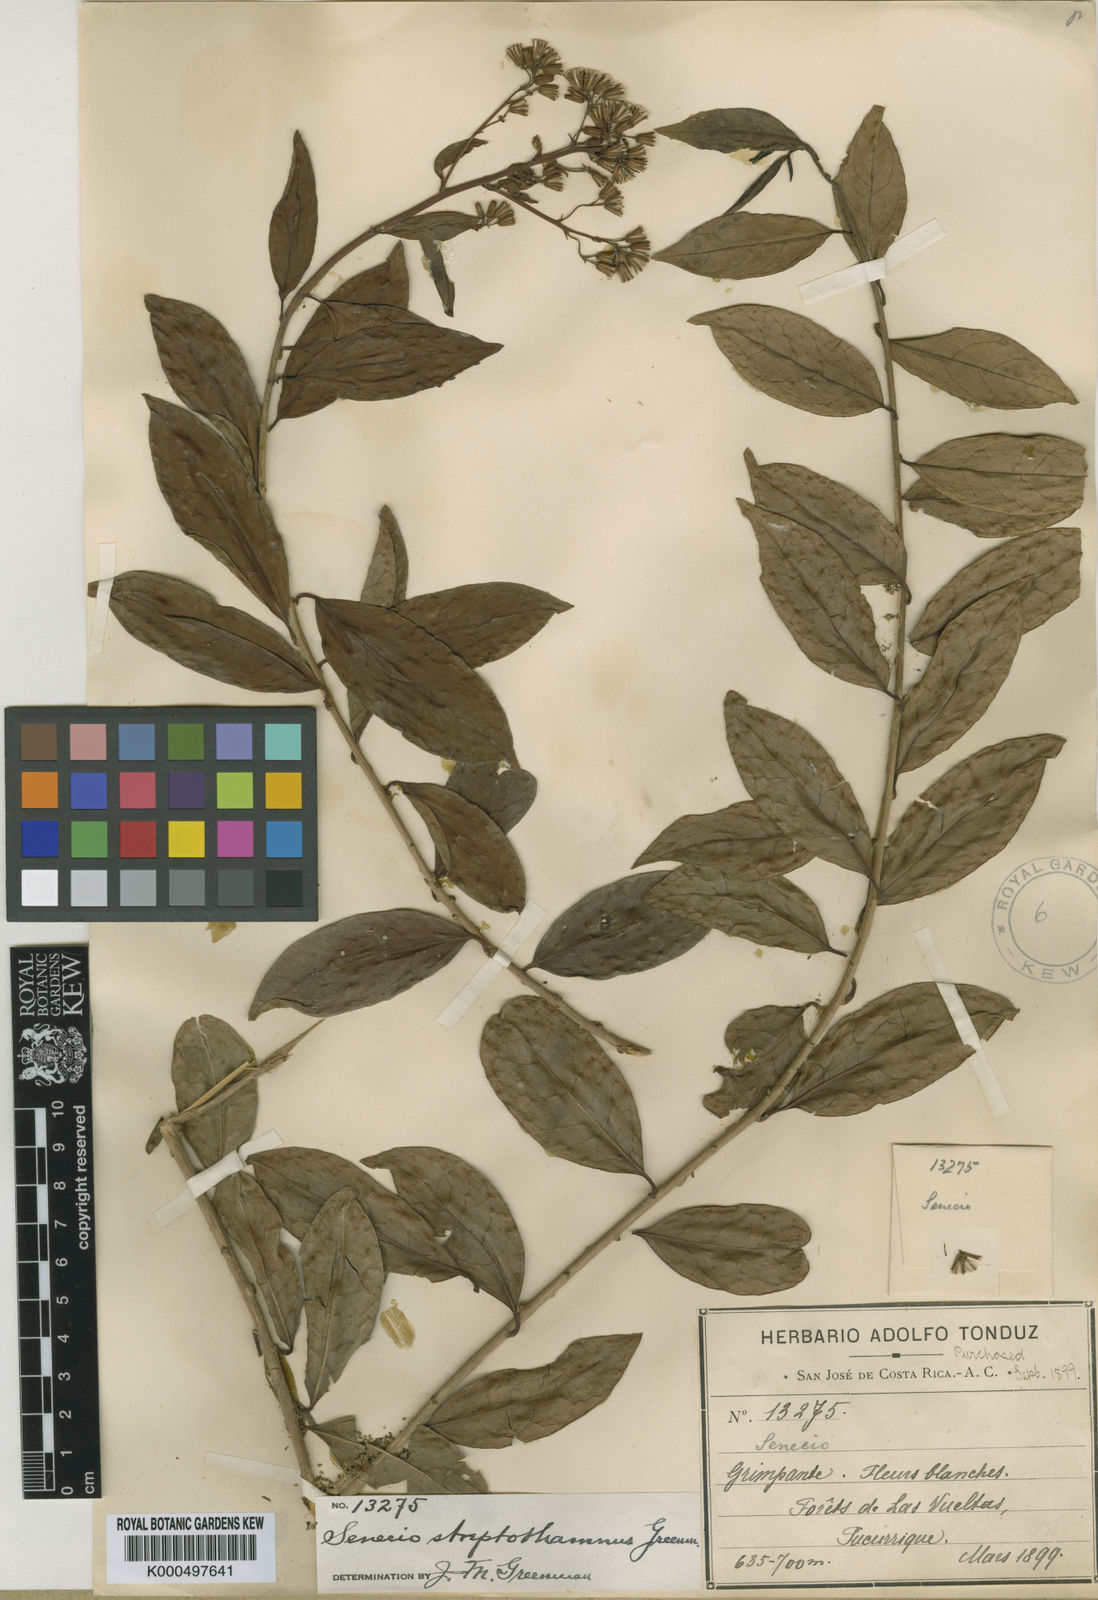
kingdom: Plantae
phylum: Tracheophyta
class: Magnoliopsida
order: Asterales
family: Asteraceae
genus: Pentacalia
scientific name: Pentacalia streptothamna
